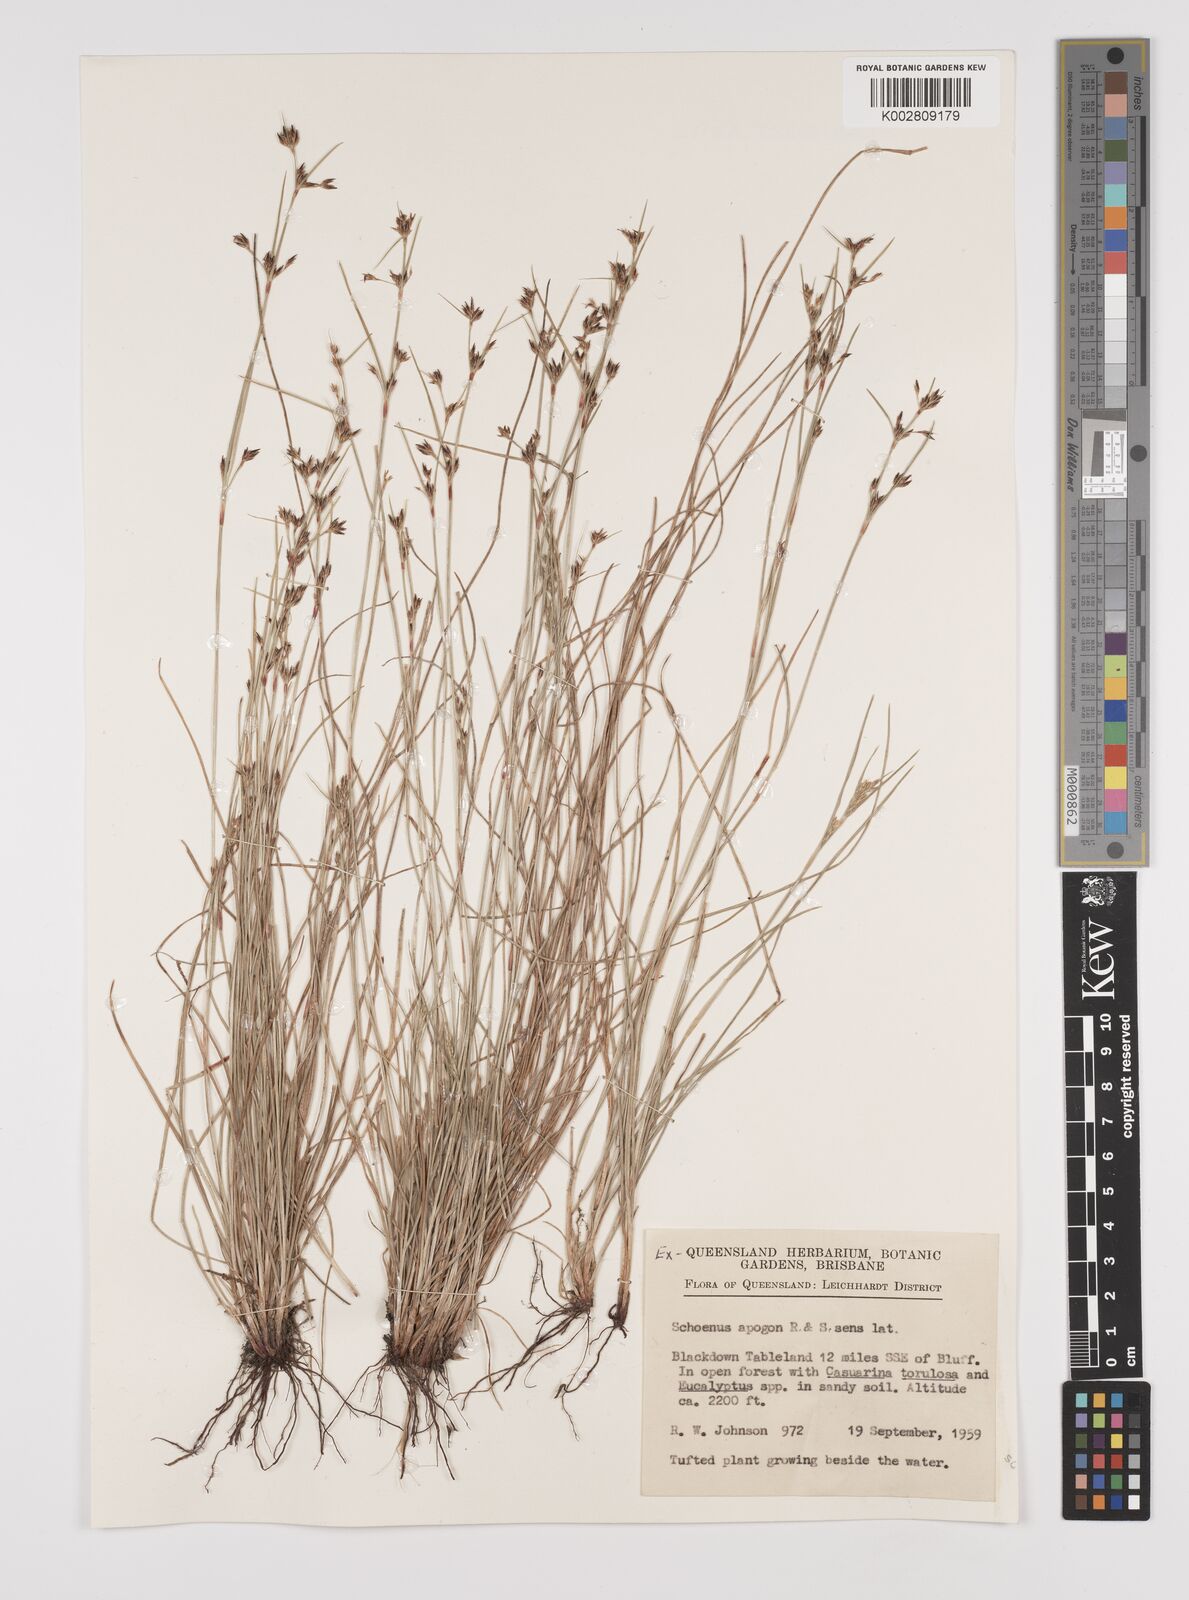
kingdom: Plantae
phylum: Tracheophyta
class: Liliopsida
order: Poales
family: Cyperaceae
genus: Schoenus
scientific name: Schoenus apogon
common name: Smooth bogrush
